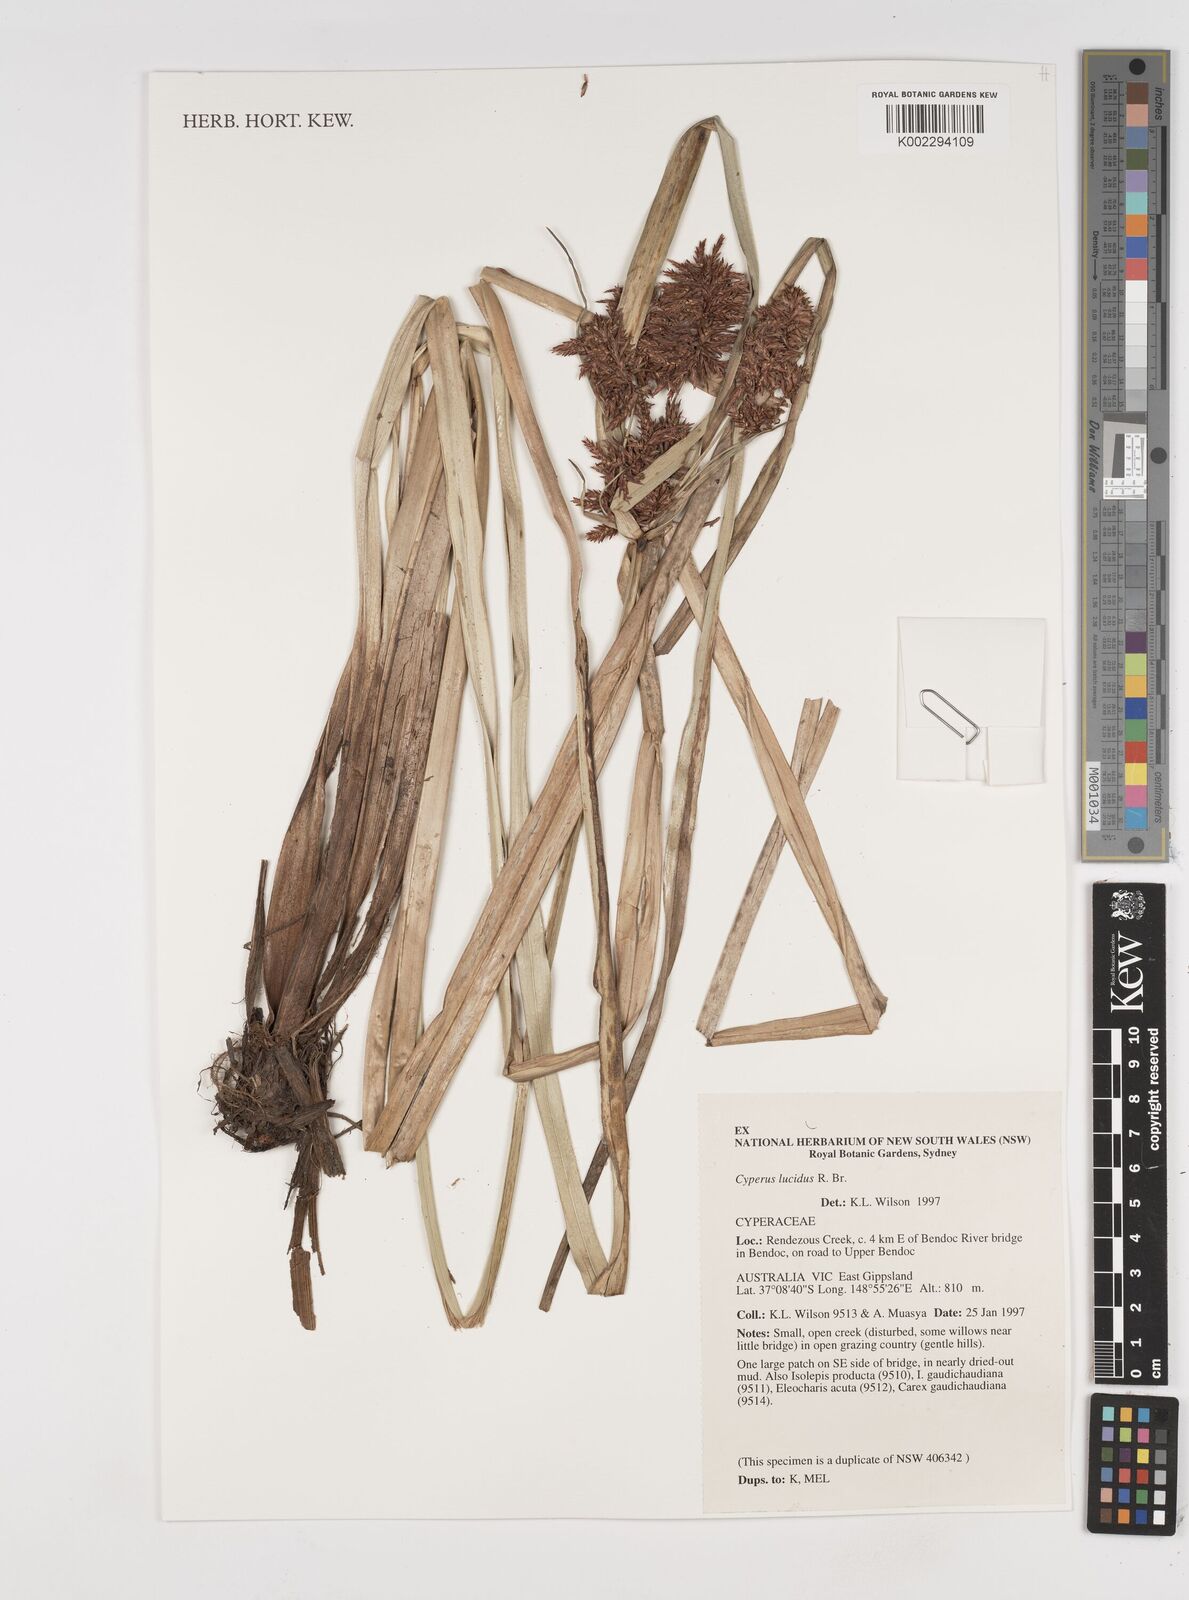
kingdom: Plantae
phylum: Tracheophyta
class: Liliopsida
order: Poales
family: Cyperaceae
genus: Cyperus
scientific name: Cyperus lucidus
